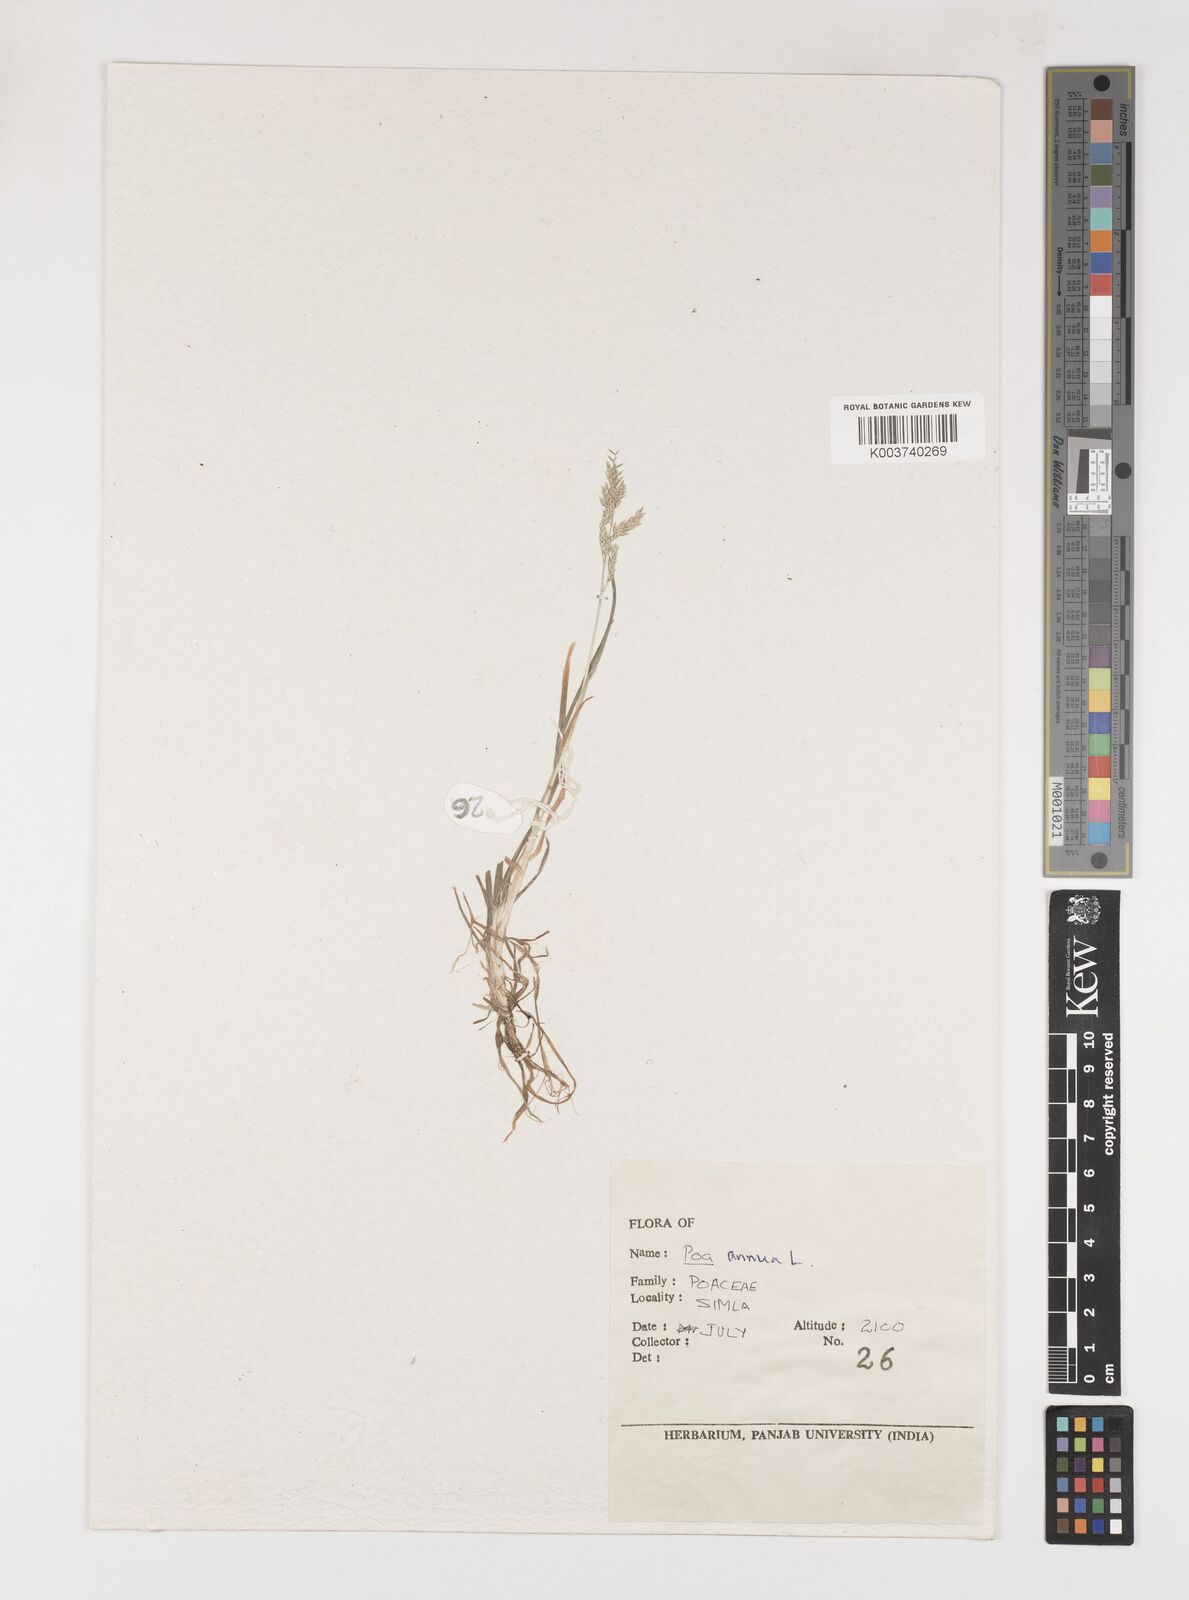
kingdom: Plantae
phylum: Tracheophyta
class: Liliopsida
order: Poales
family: Poaceae
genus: Poa
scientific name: Poa annua
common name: Annual bluegrass
